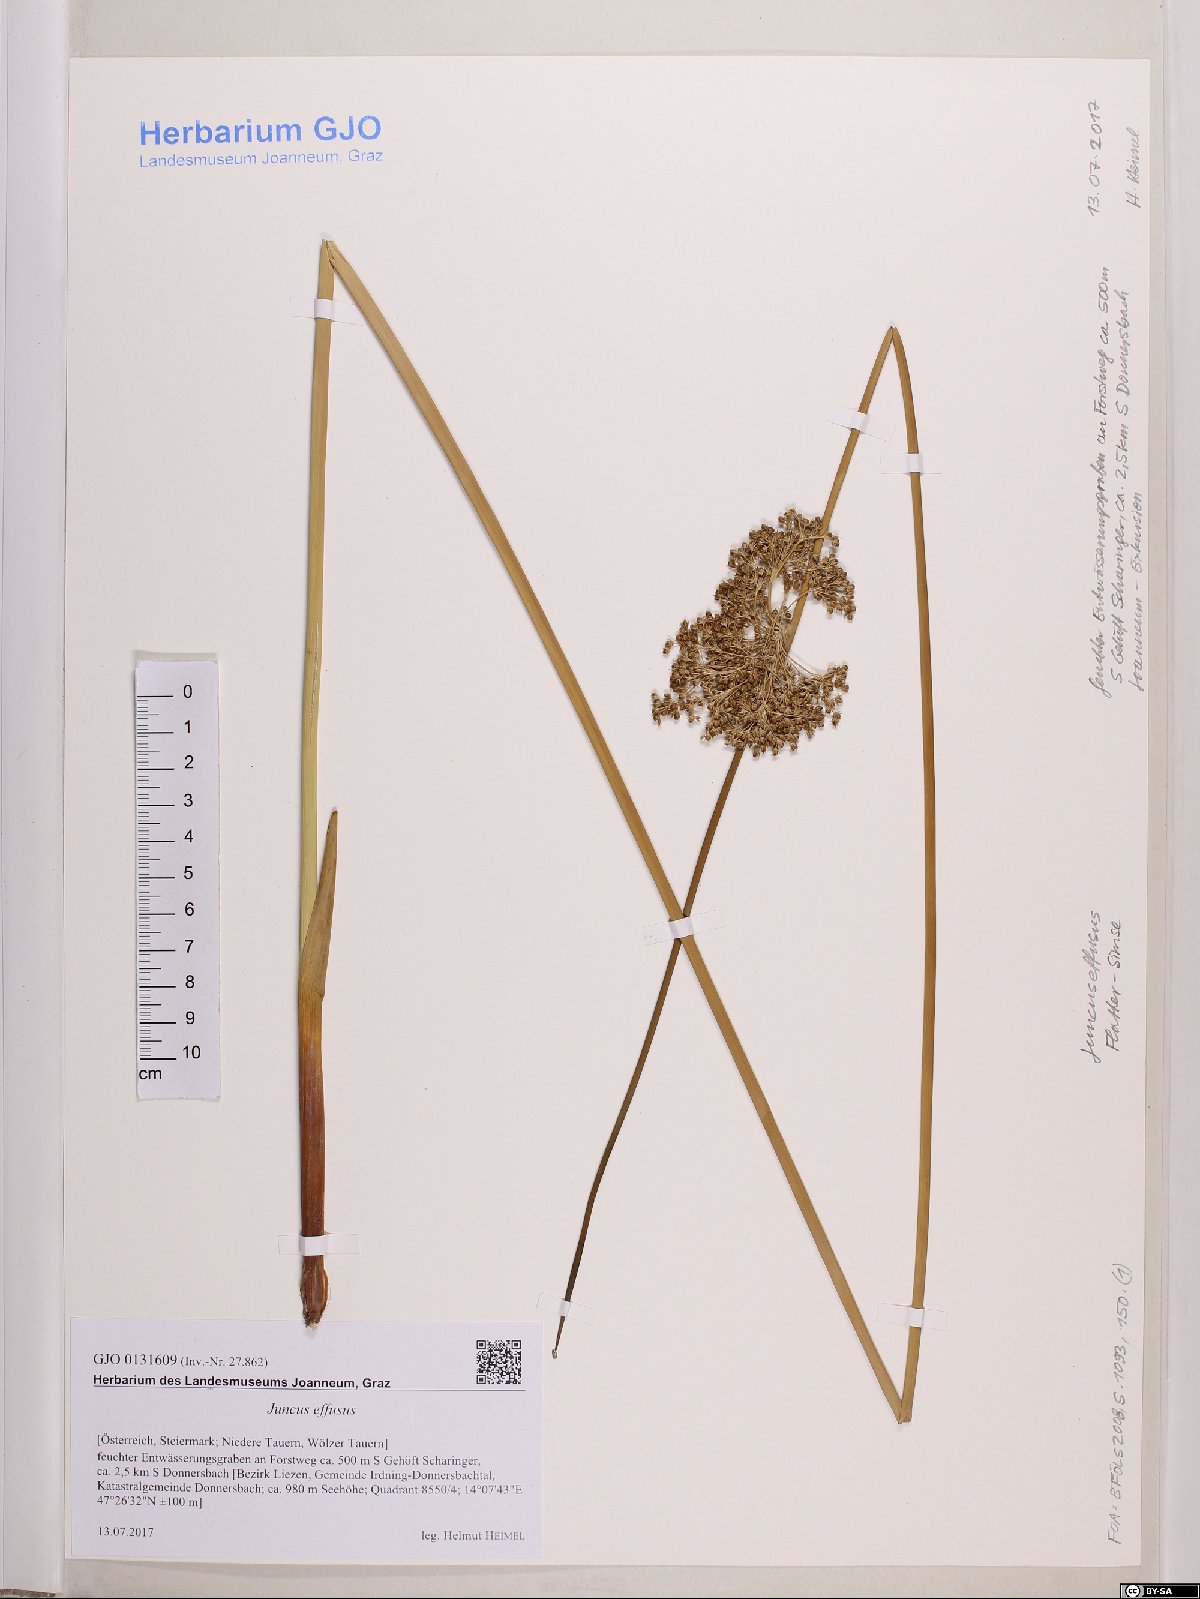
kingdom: Plantae
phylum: Tracheophyta
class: Liliopsida
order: Poales
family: Juncaceae
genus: Juncus
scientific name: Juncus effusus
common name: Soft rush
